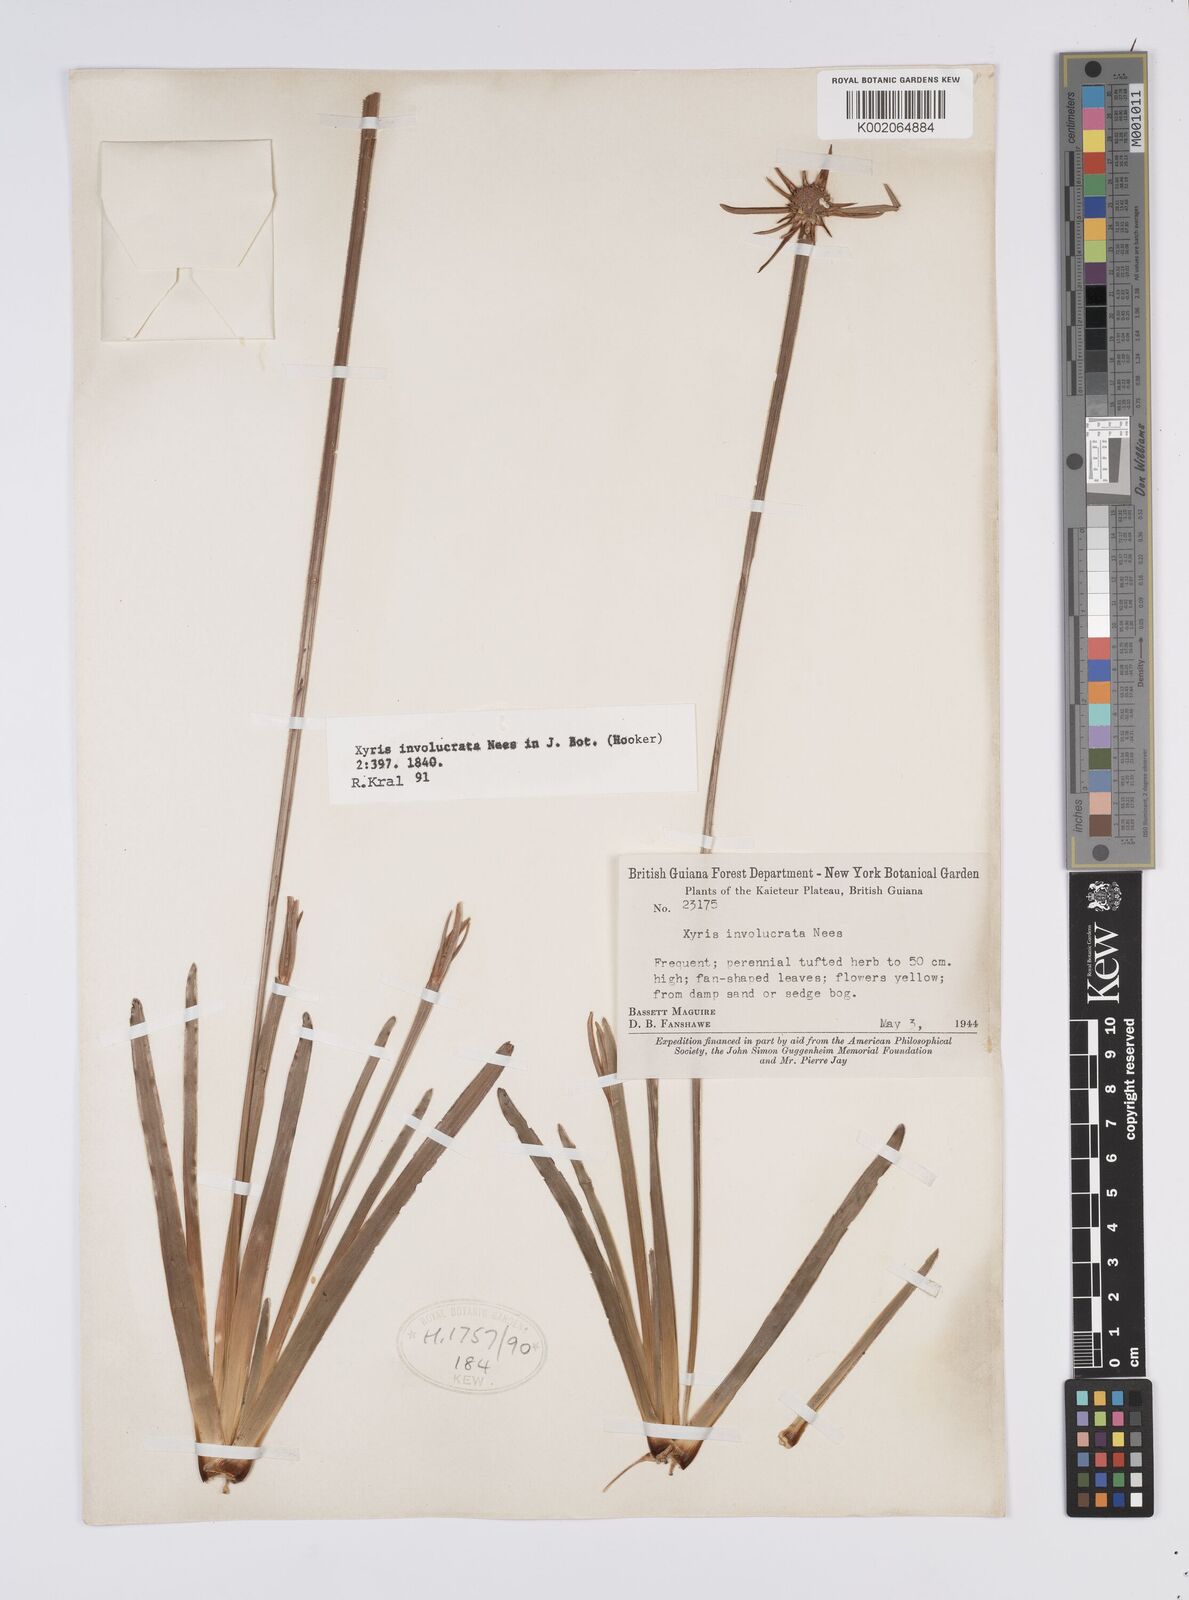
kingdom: Plantae
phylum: Tracheophyta
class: Liliopsida
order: Poales
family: Xyridaceae
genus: Xyris
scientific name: Xyris involucrata
